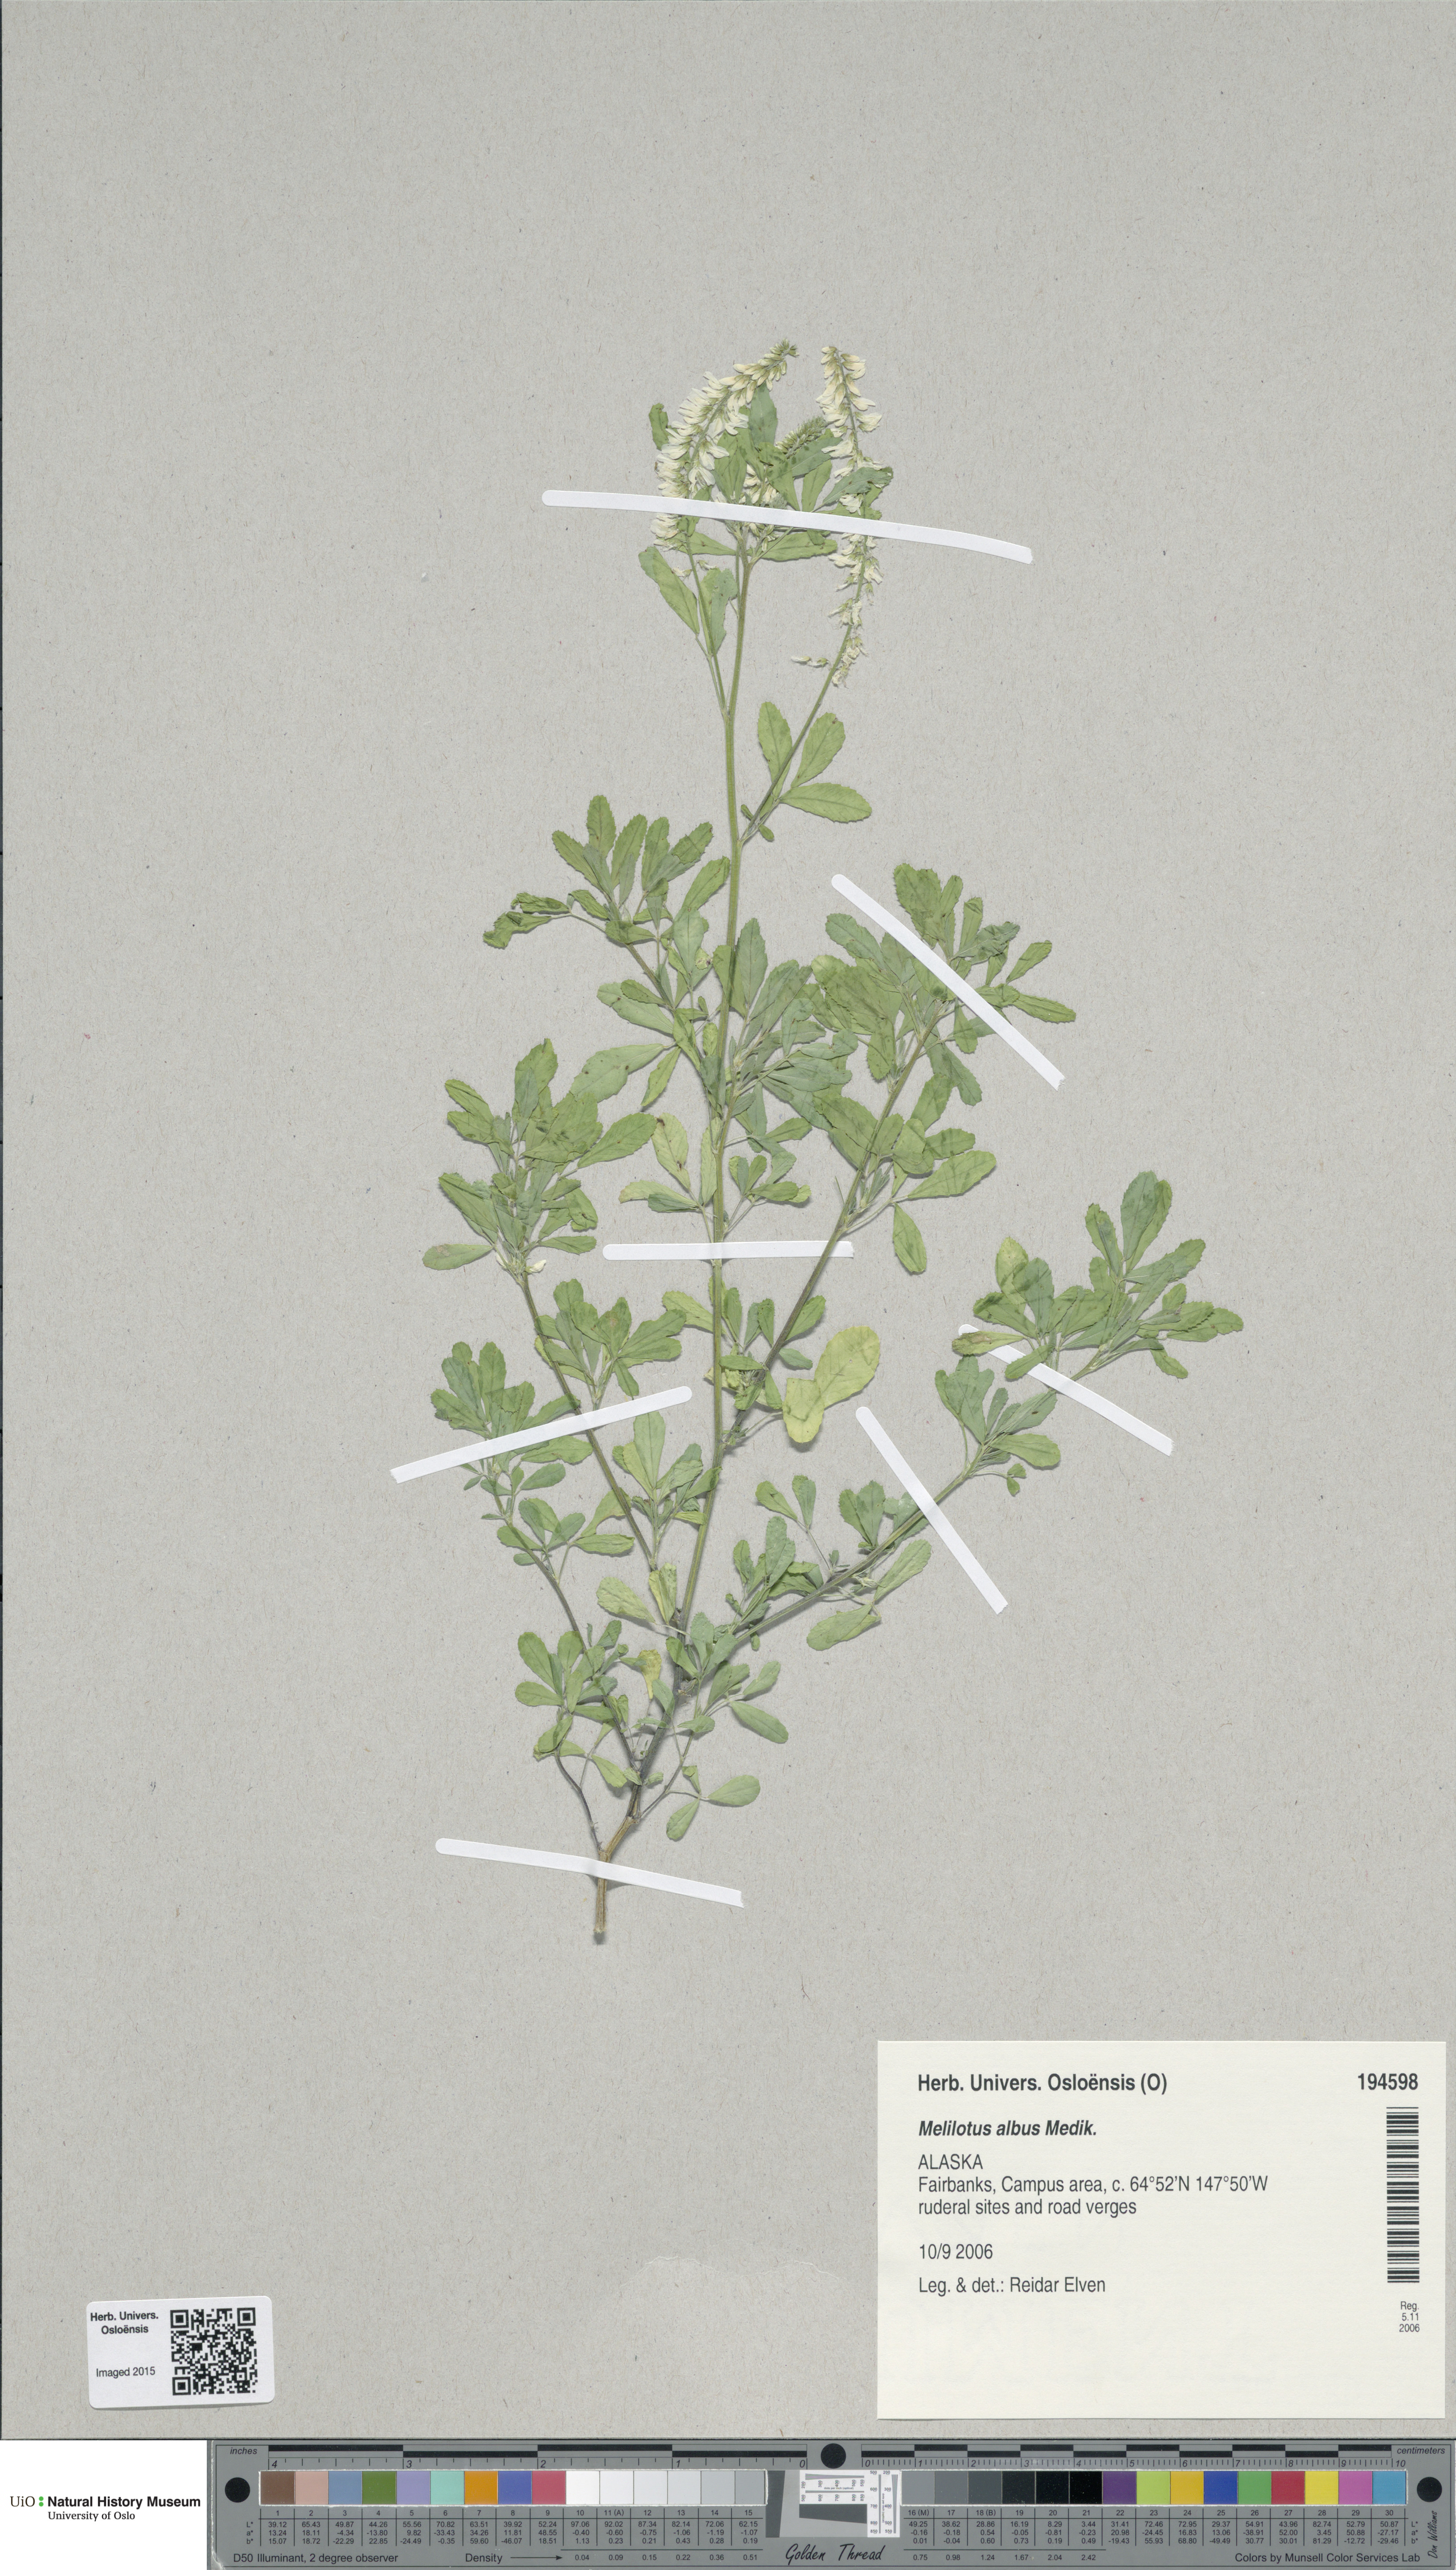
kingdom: Plantae
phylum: Tracheophyta
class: Magnoliopsida
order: Fabales
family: Fabaceae
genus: Melilotus
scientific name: Melilotus albus
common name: White melilot
